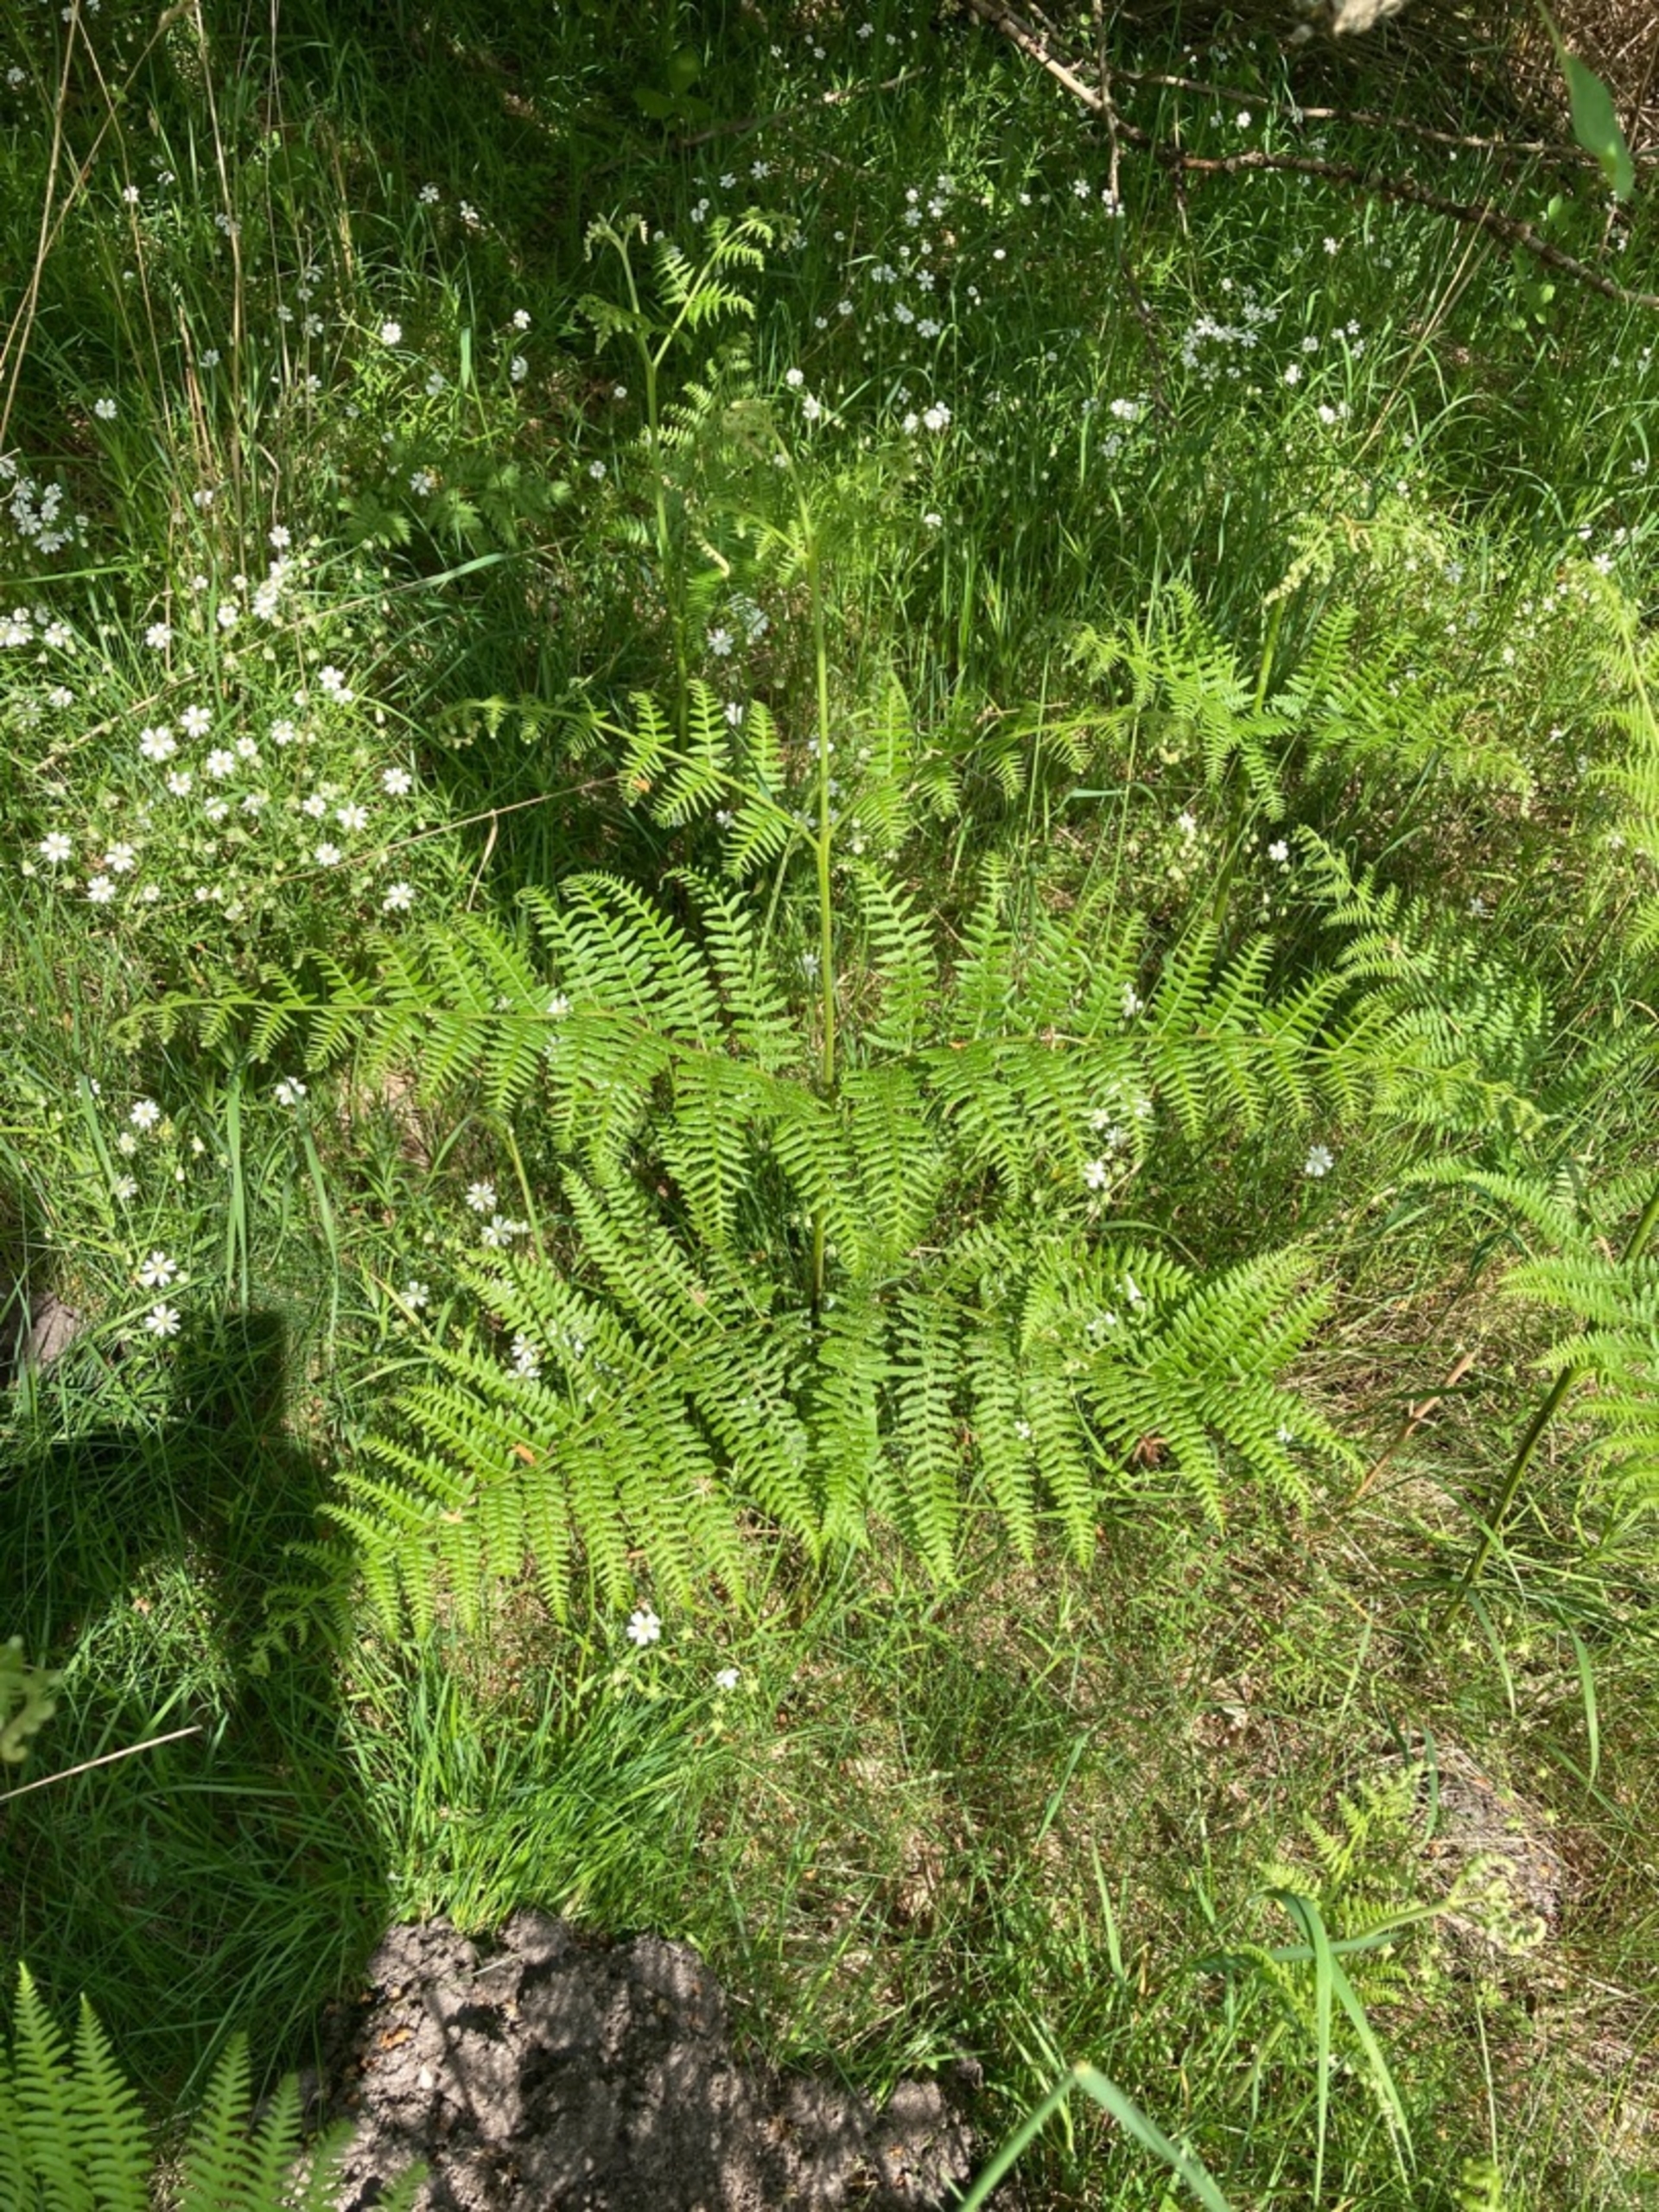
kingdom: Plantae
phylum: Tracheophyta
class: Polypodiopsida
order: Polypodiales
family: Dennstaedtiaceae
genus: Pteridium
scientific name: Pteridium aquilinum
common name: Ørnebregne
